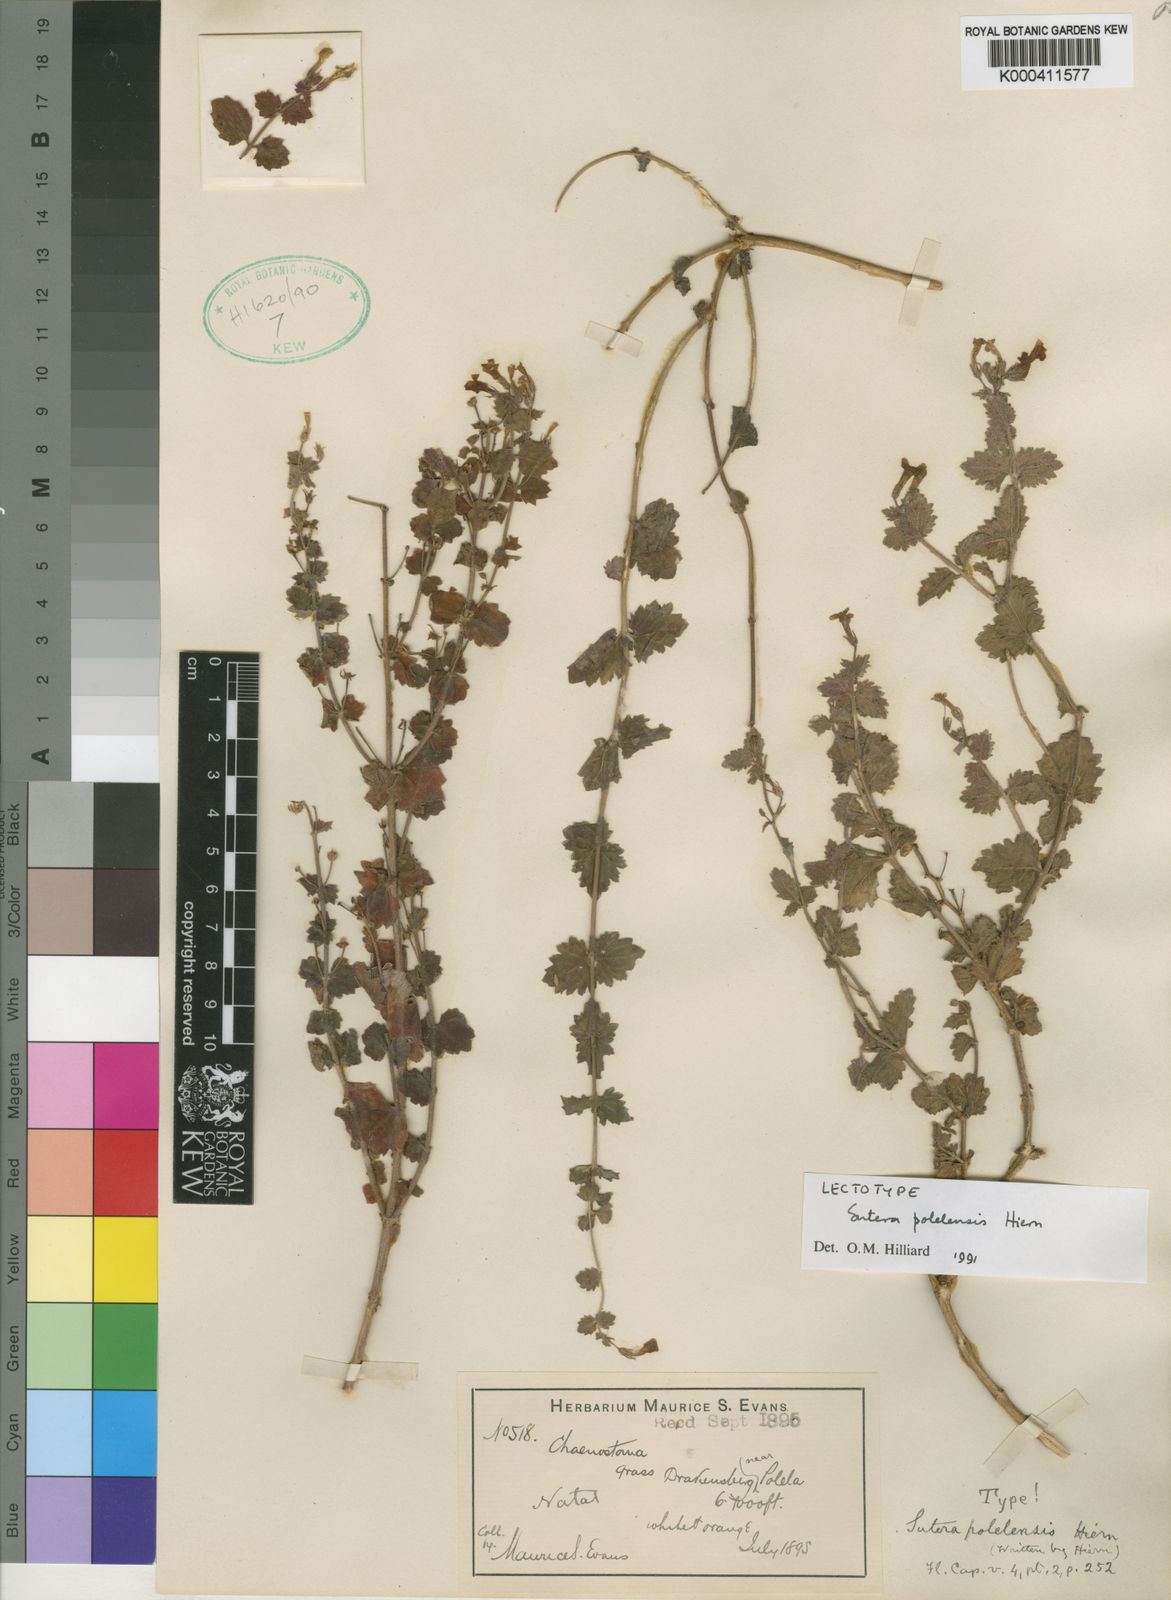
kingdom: Plantae
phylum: Tracheophyta
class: Magnoliopsida
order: Lamiales
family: Scrophulariaceae
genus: Chaenostoma
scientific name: Chaenostoma polelense
